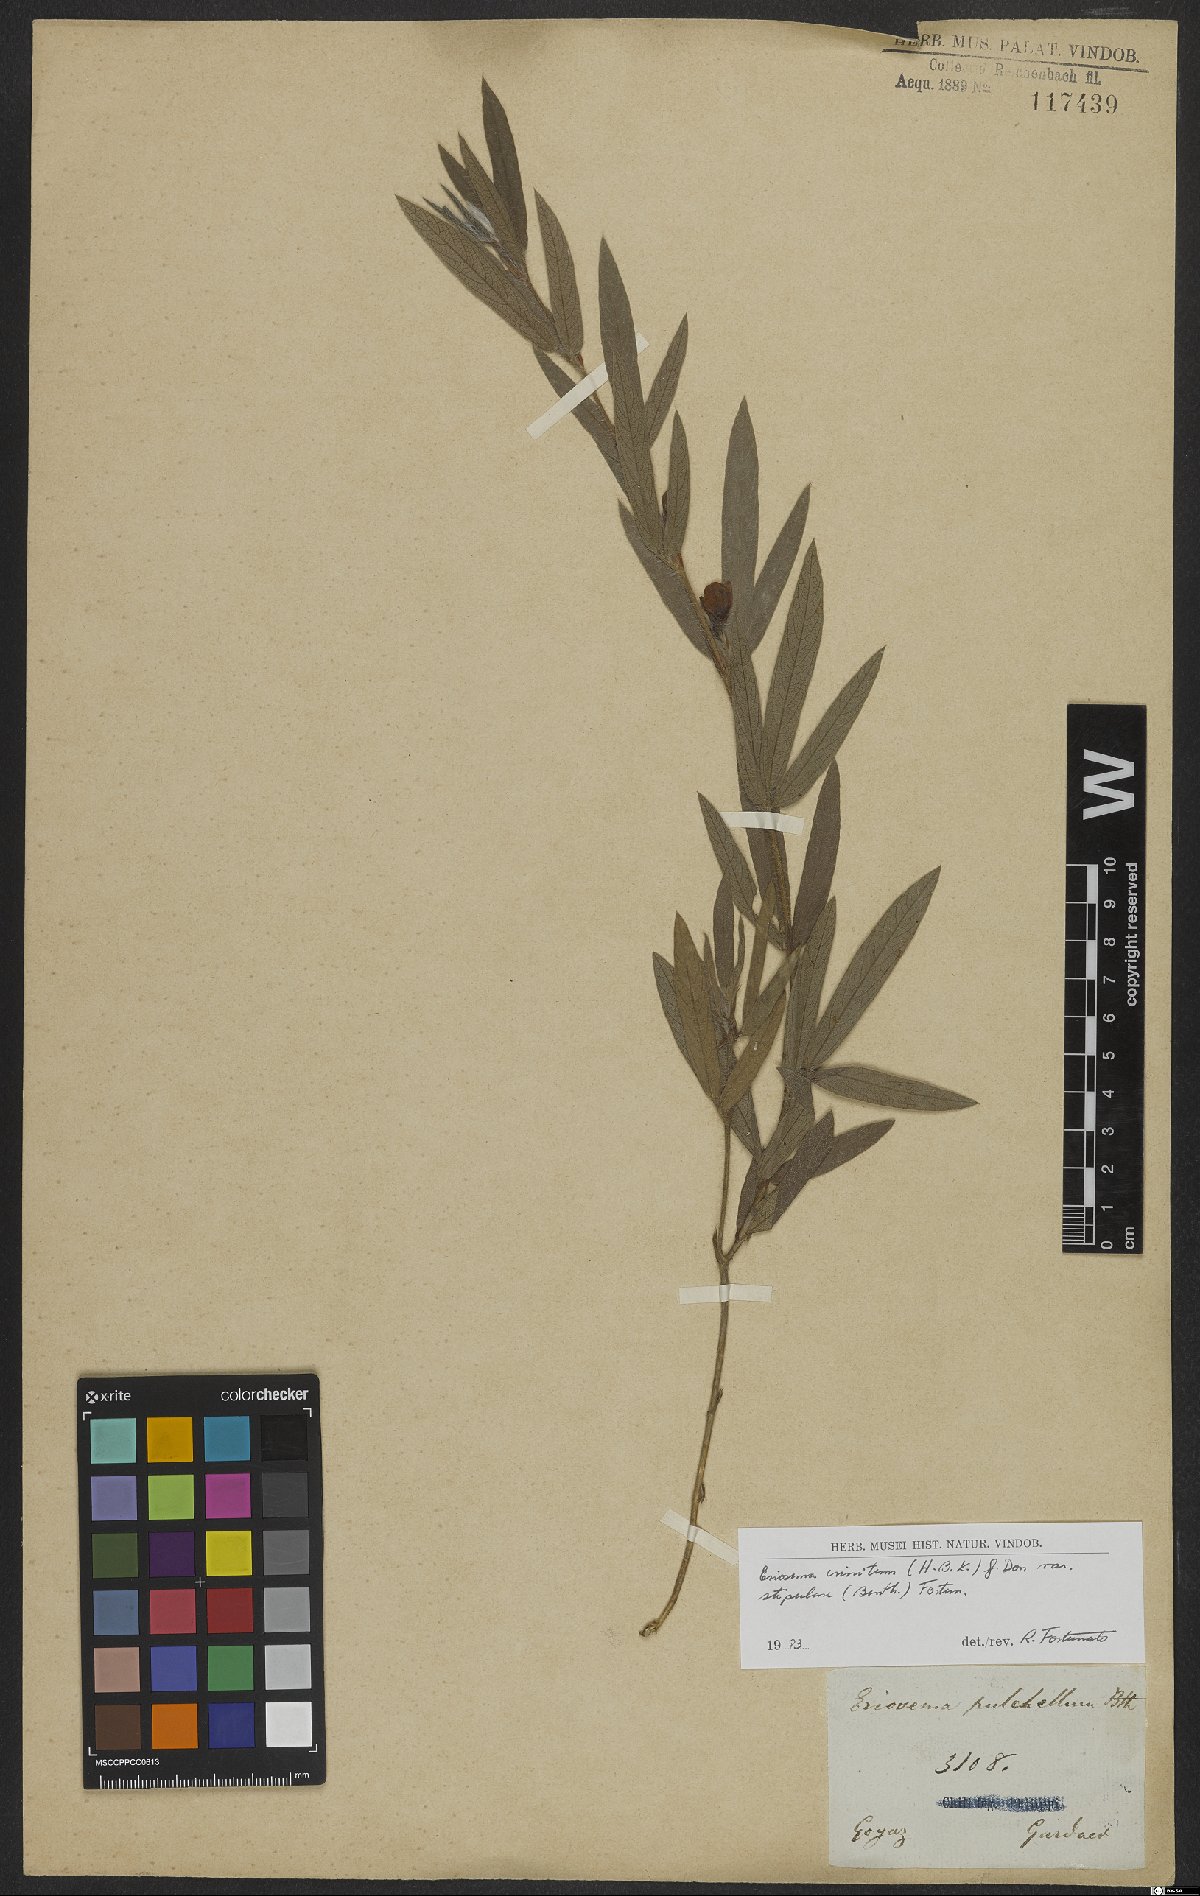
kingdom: Plantae
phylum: Tracheophyta
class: Magnoliopsida
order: Fabales
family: Fabaceae
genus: Eriosema
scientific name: Eriosema crinitum
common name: Sand pea
